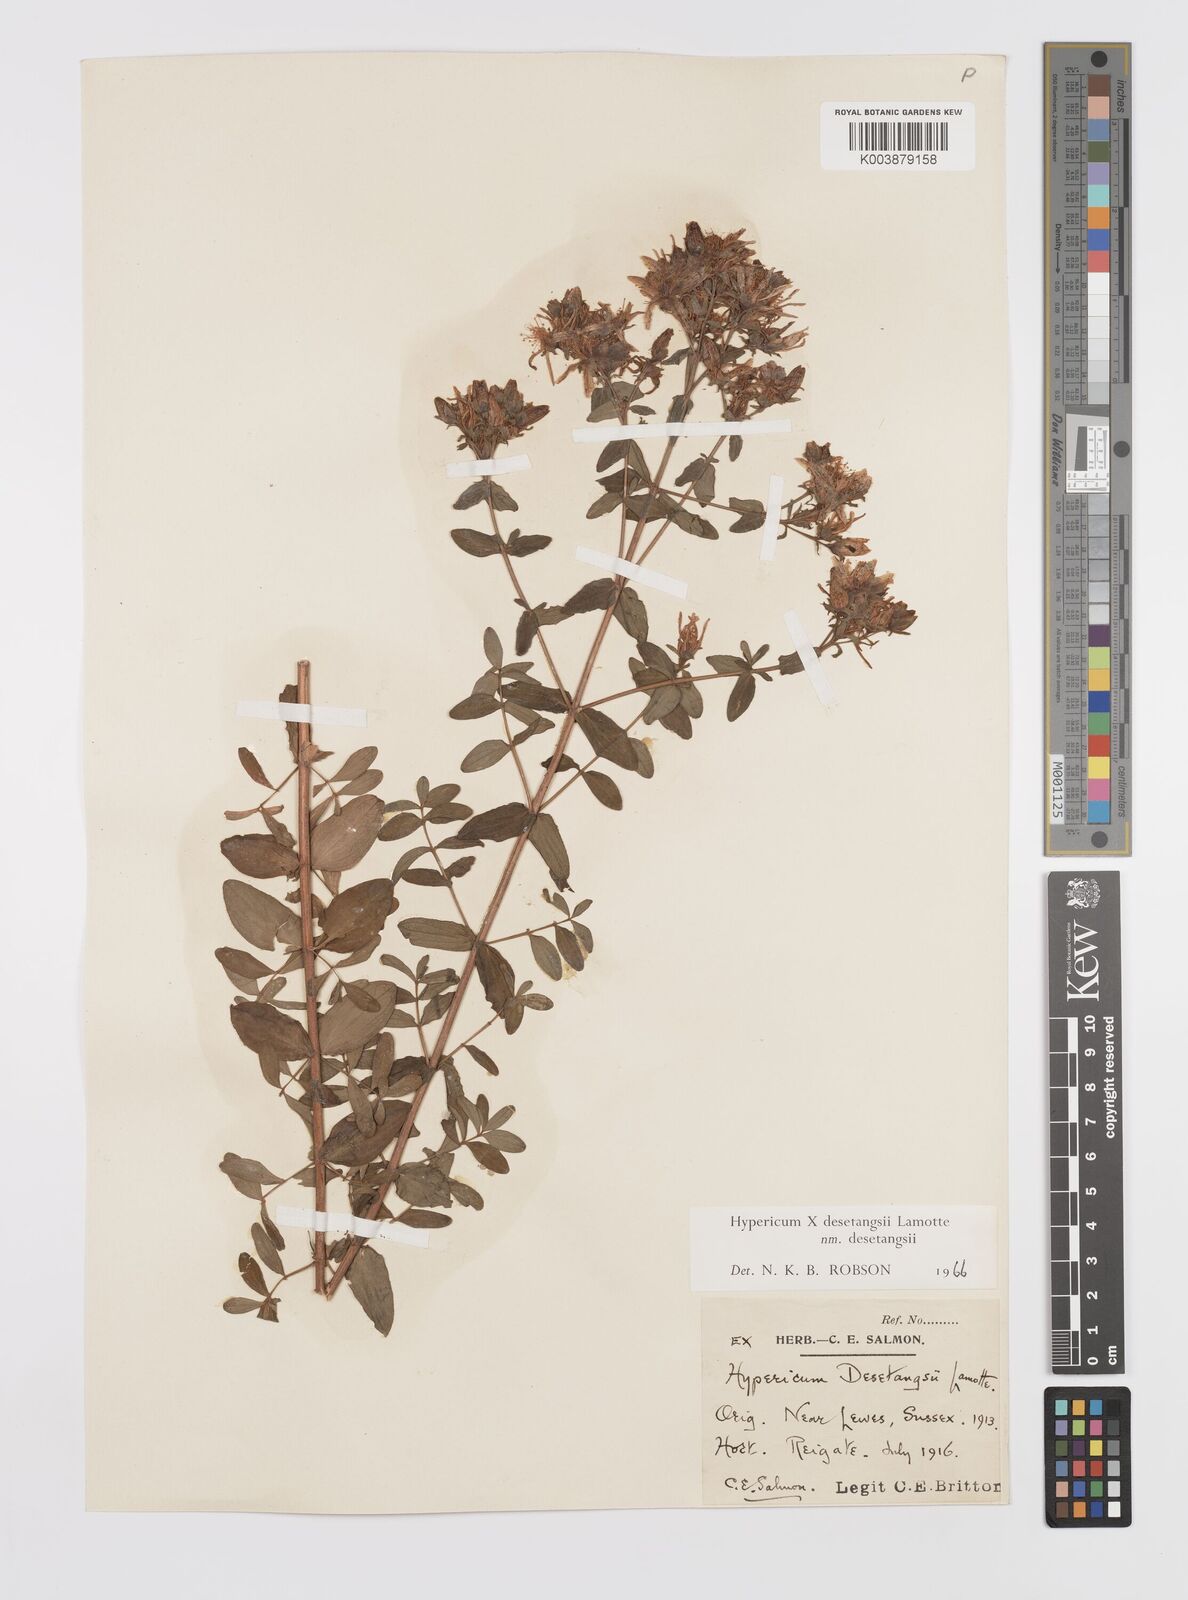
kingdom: Plantae
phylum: Tracheophyta
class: Magnoliopsida
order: Malpighiales
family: Hypericaceae
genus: Hypericum
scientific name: Hypericum desetangsii
